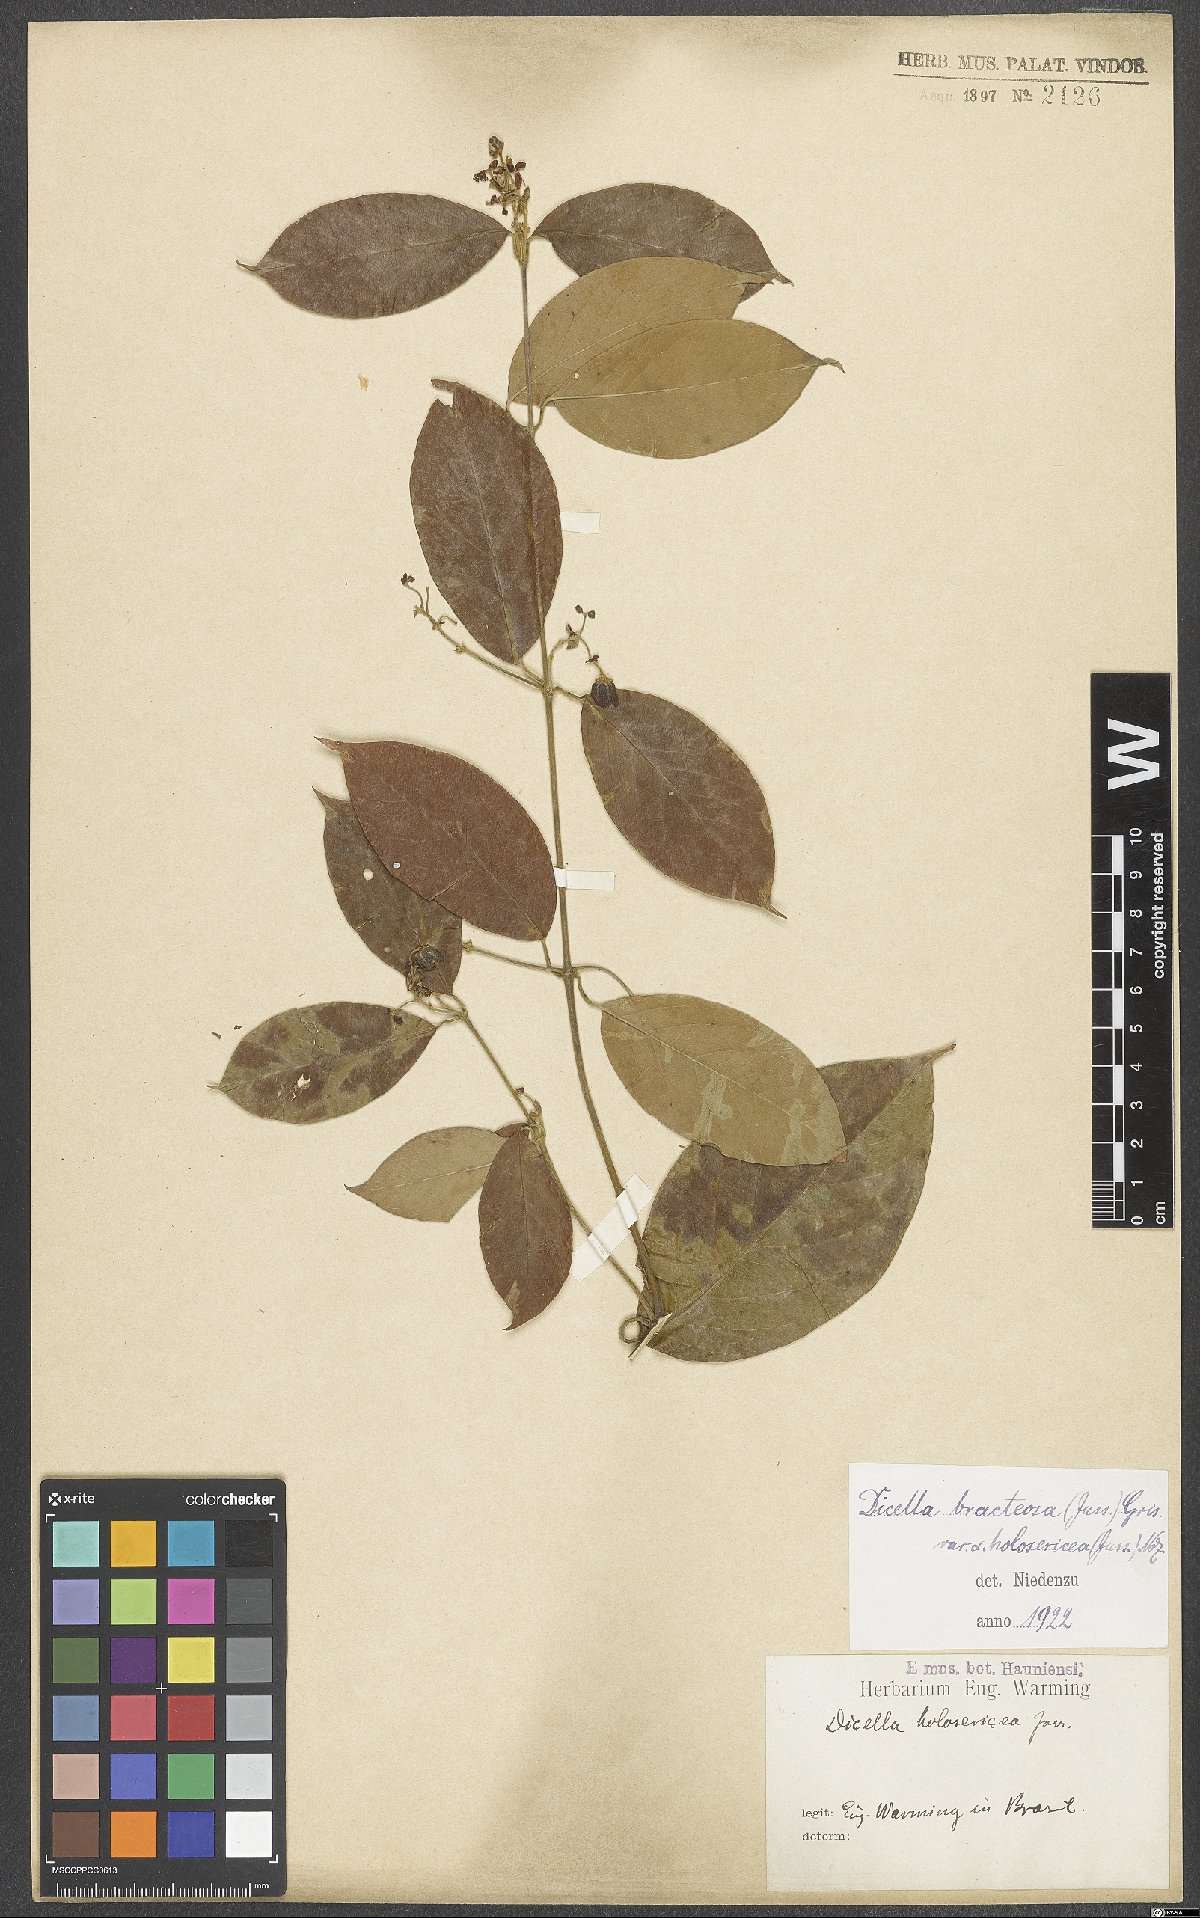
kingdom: Plantae
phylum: Tracheophyta
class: Magnoliopsida
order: Malpighiales
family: Malpighiaceae
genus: Dicella
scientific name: Dicella bracteosa
